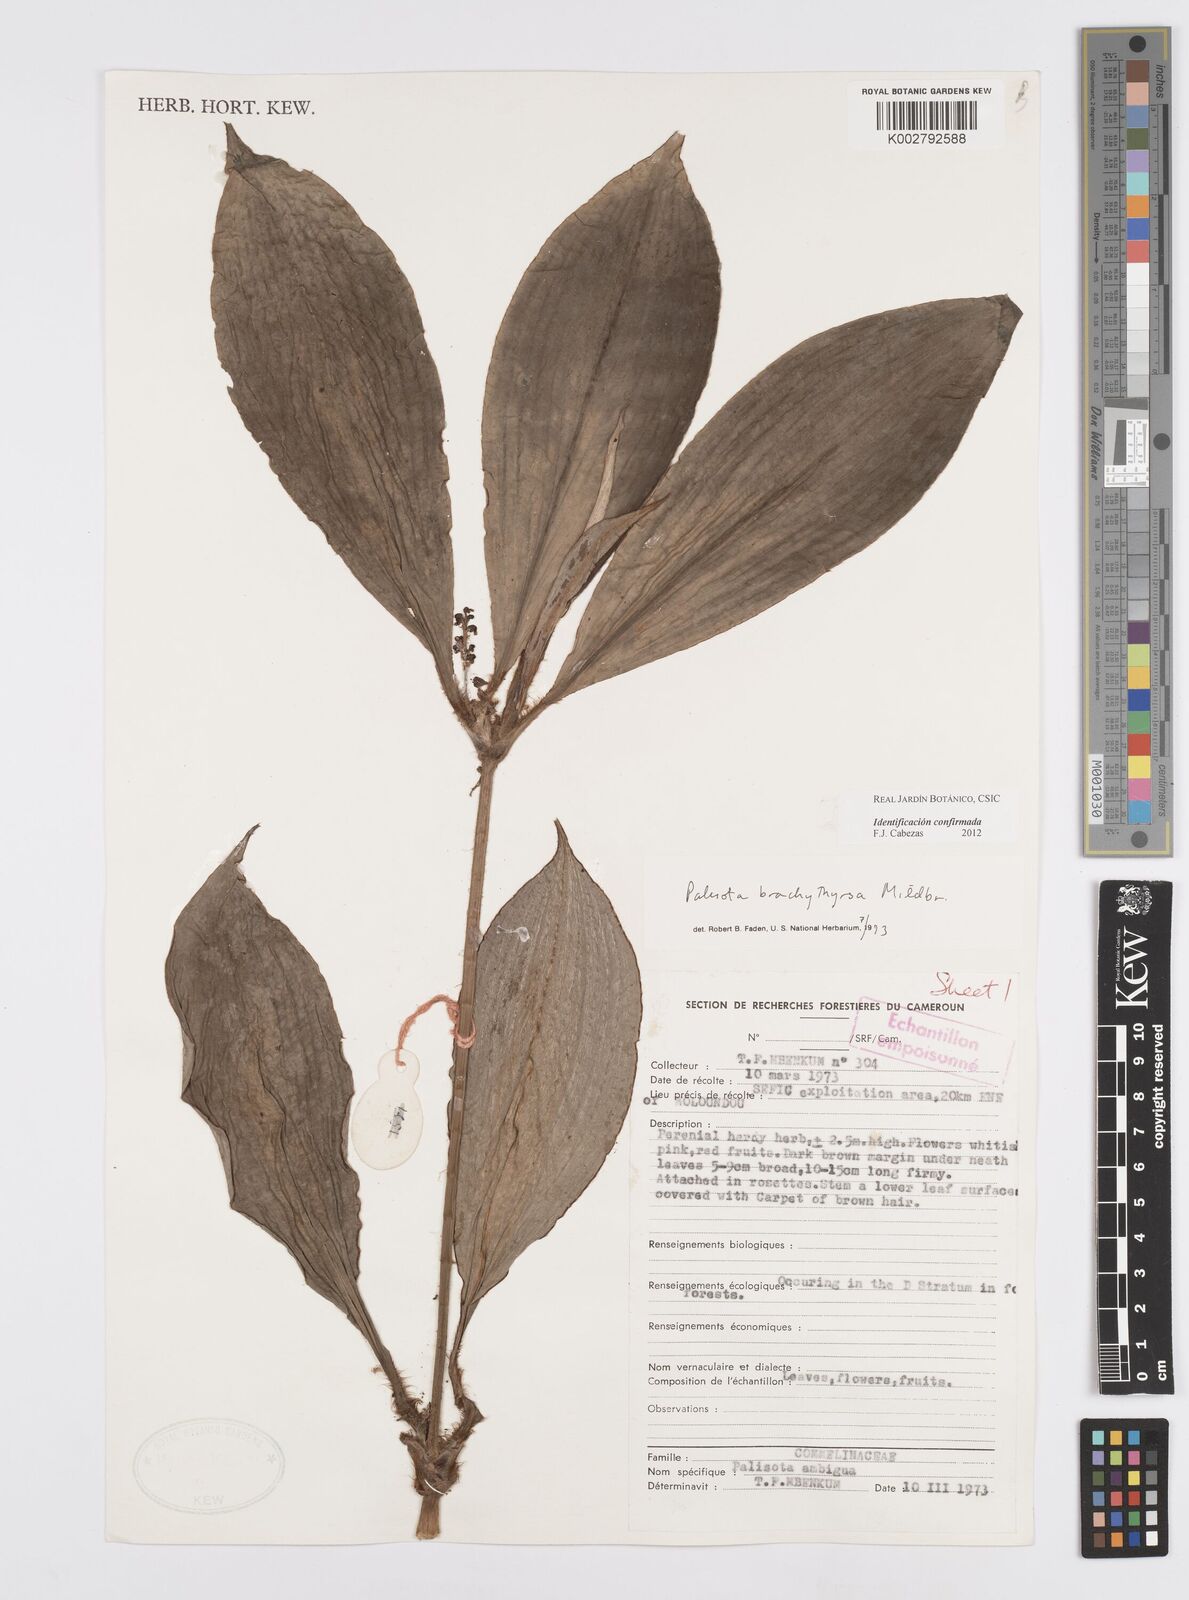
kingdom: Plantae
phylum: Tracheophyta
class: Liliopsida
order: Commelinales
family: Commelinaceae
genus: Palisota
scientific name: Palisota brachythyrsa
